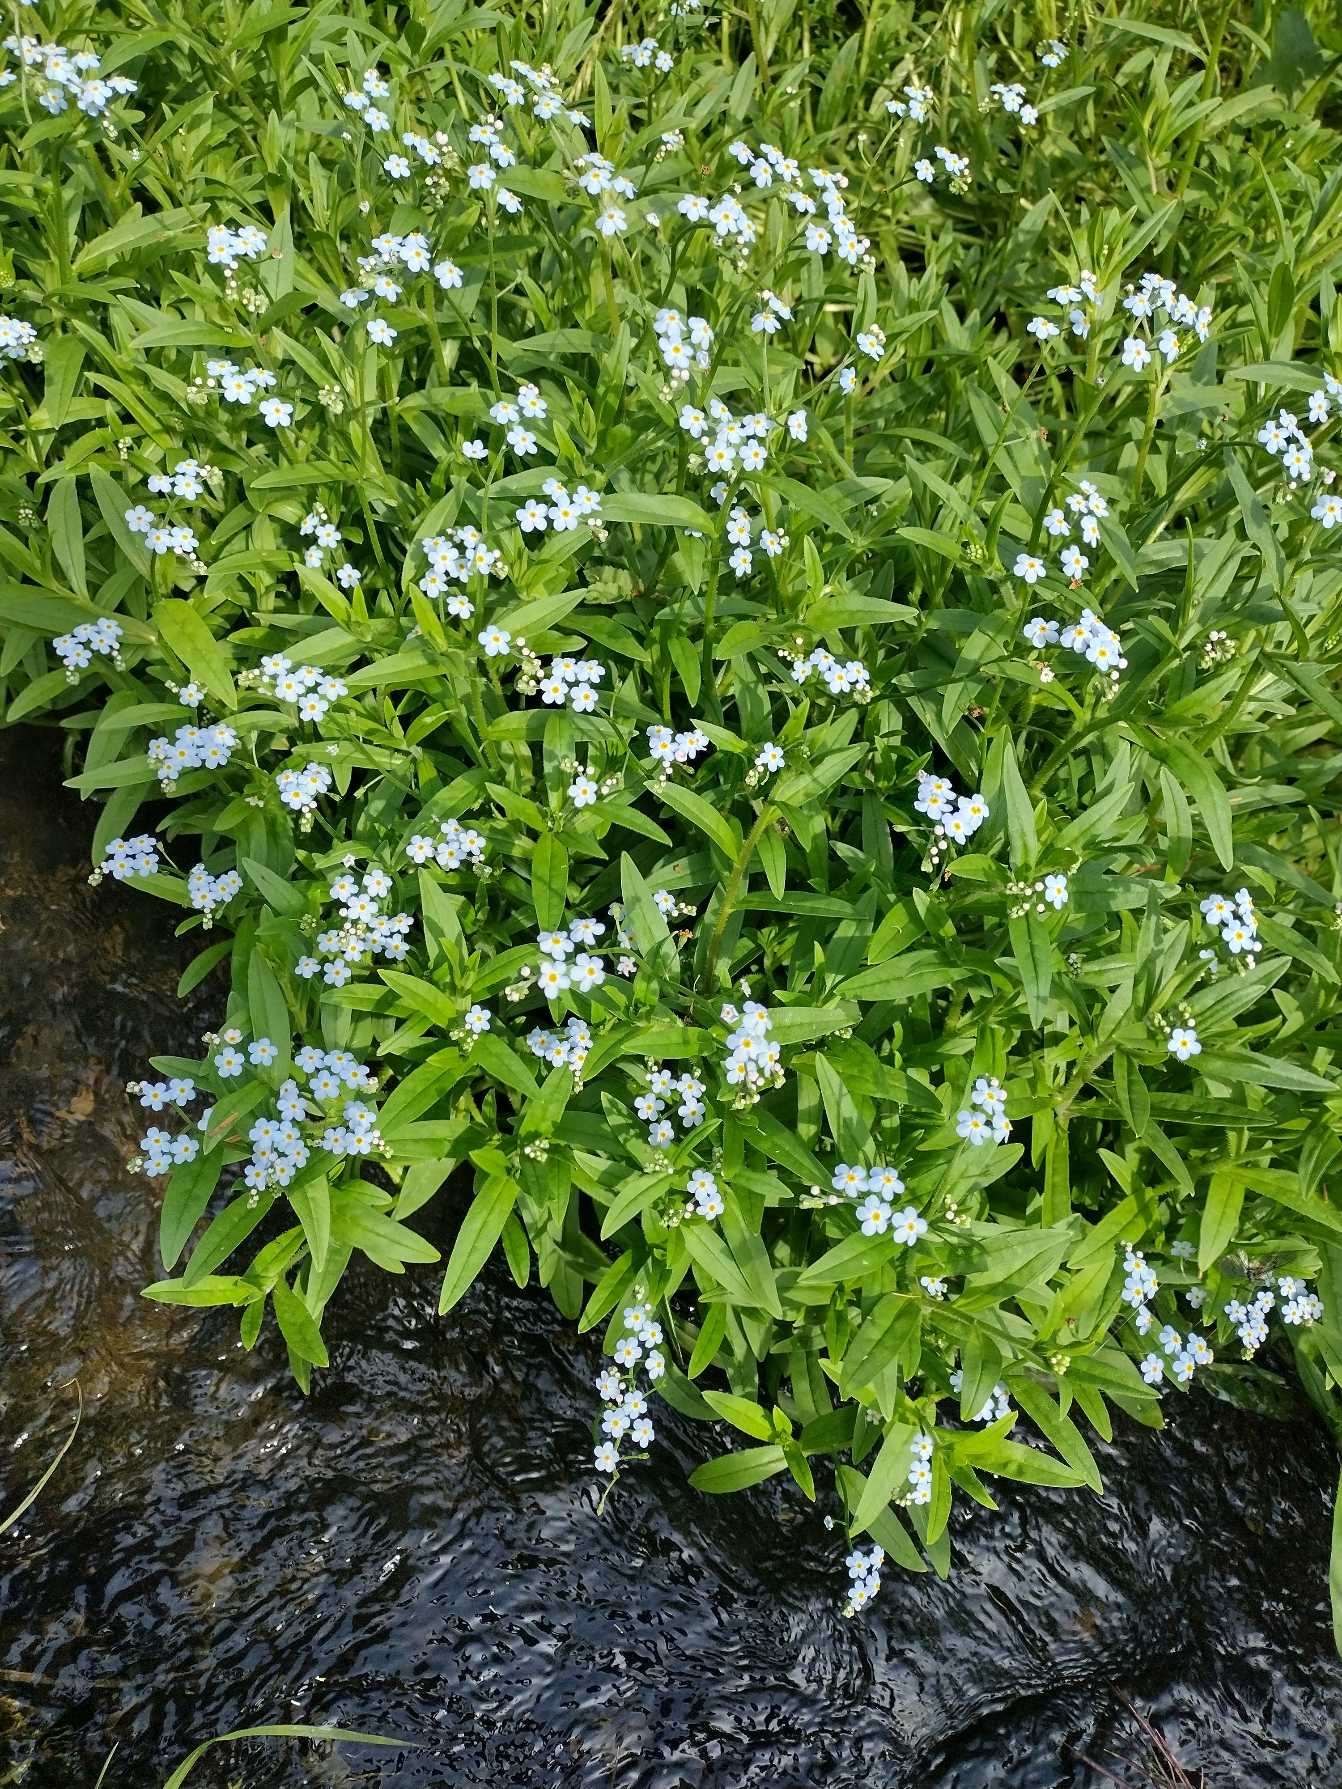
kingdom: Plantae
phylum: Tracheophyta
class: Magnoliopsida
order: Boraginales
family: Boraginaceae
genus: Myosotis
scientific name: Myosotis scorpioides
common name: Eng-forglemmigej
